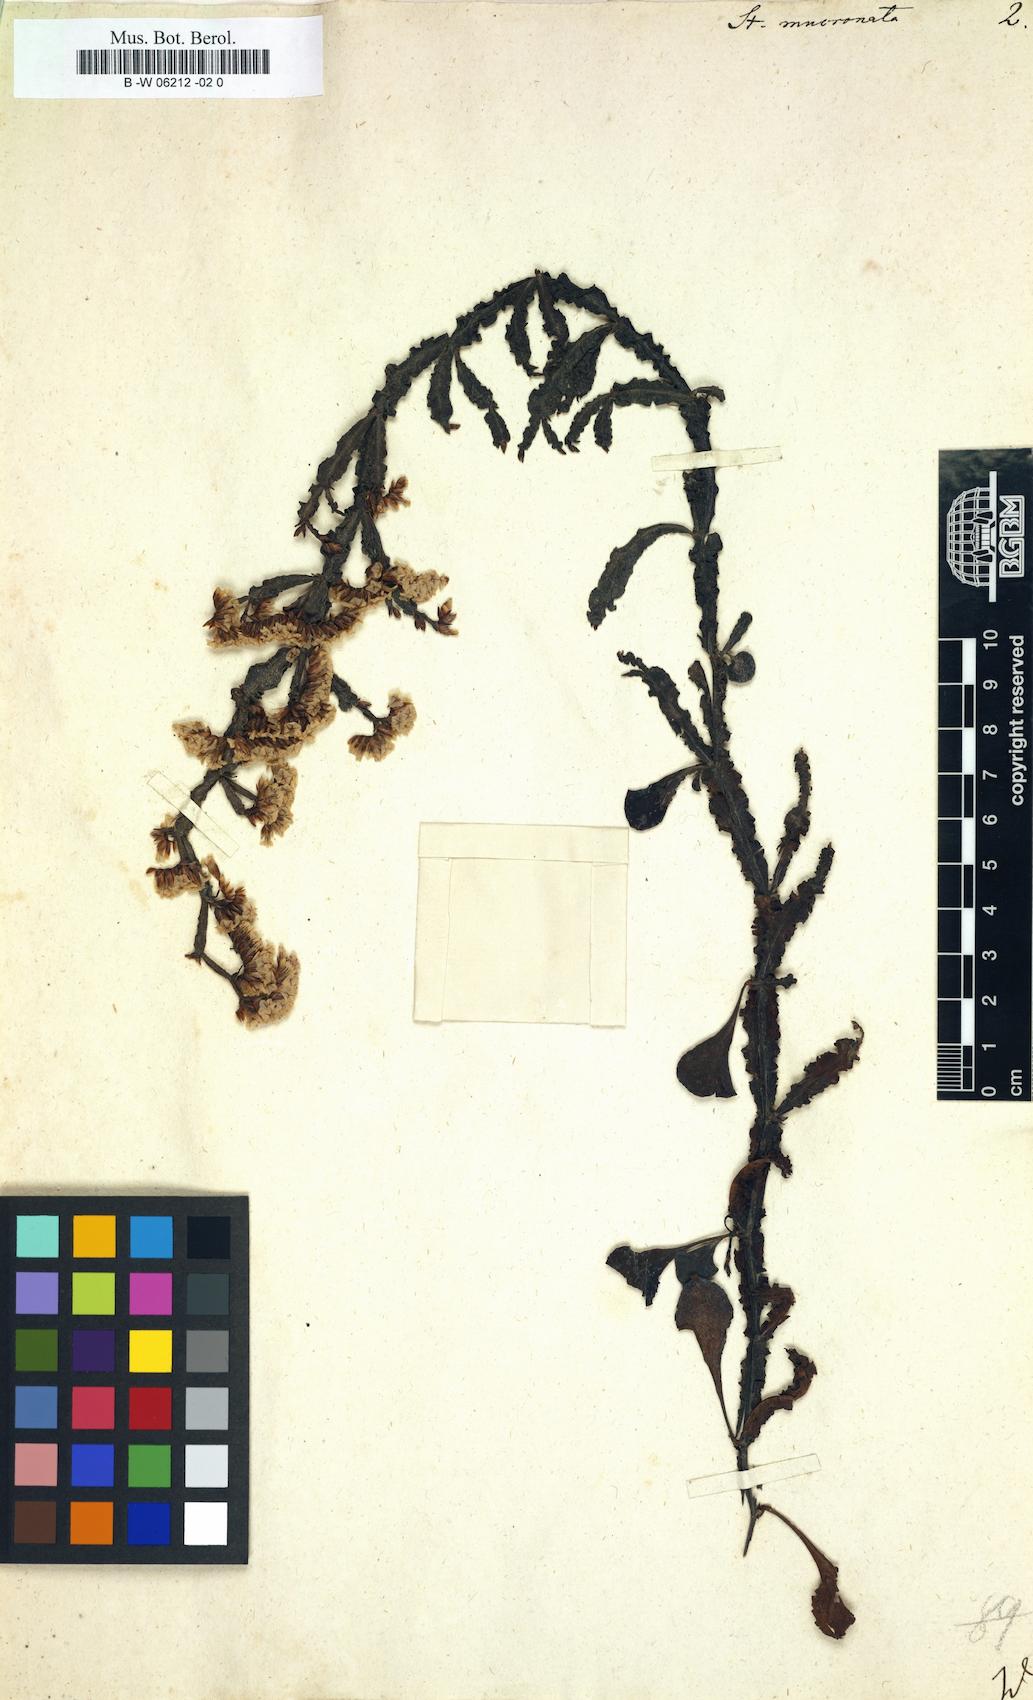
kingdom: Plantae
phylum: Tracheophyta
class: Magnoliopsida
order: Caryophyllales
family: Plumbaginaceae
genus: Limonium
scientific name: Limonium mucronatum
